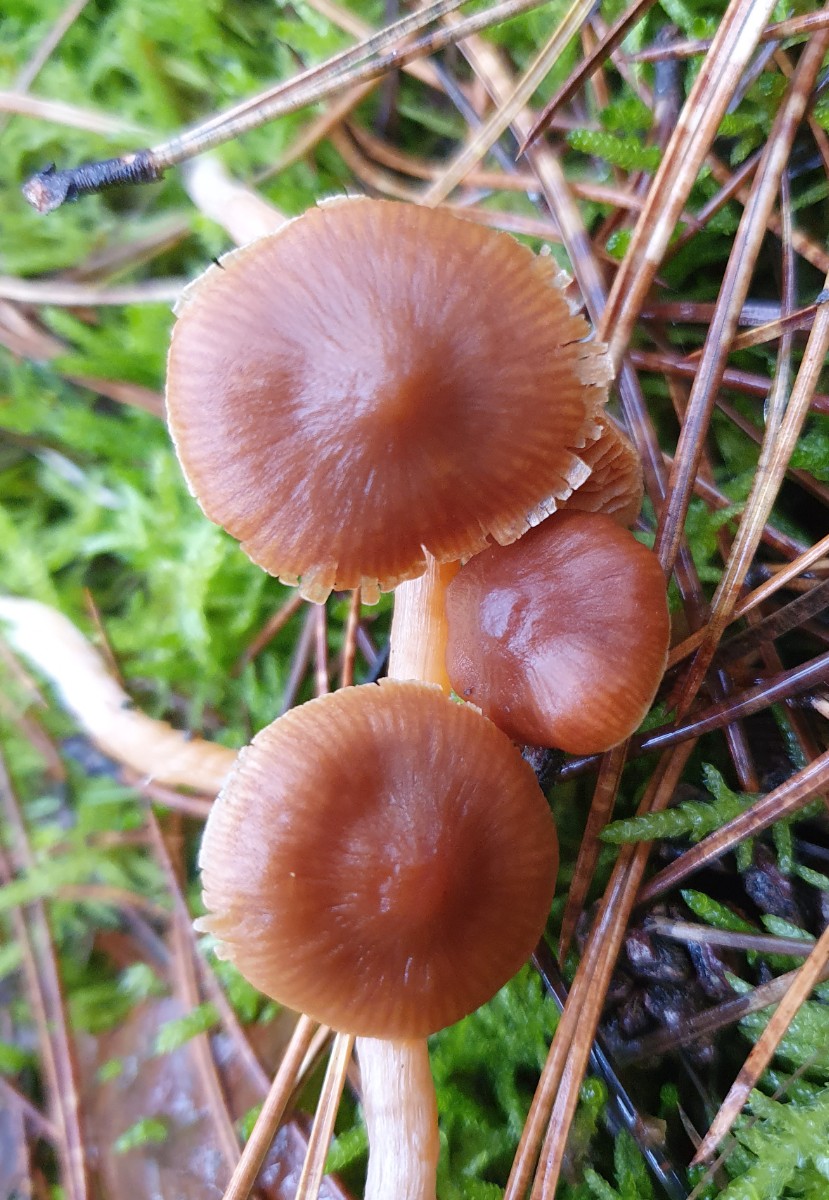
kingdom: Fungi
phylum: Basidiomycota
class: Agaricomycetes
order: Agaricales
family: Cortinariaceae
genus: Cortinarius
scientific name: Cortinarius
